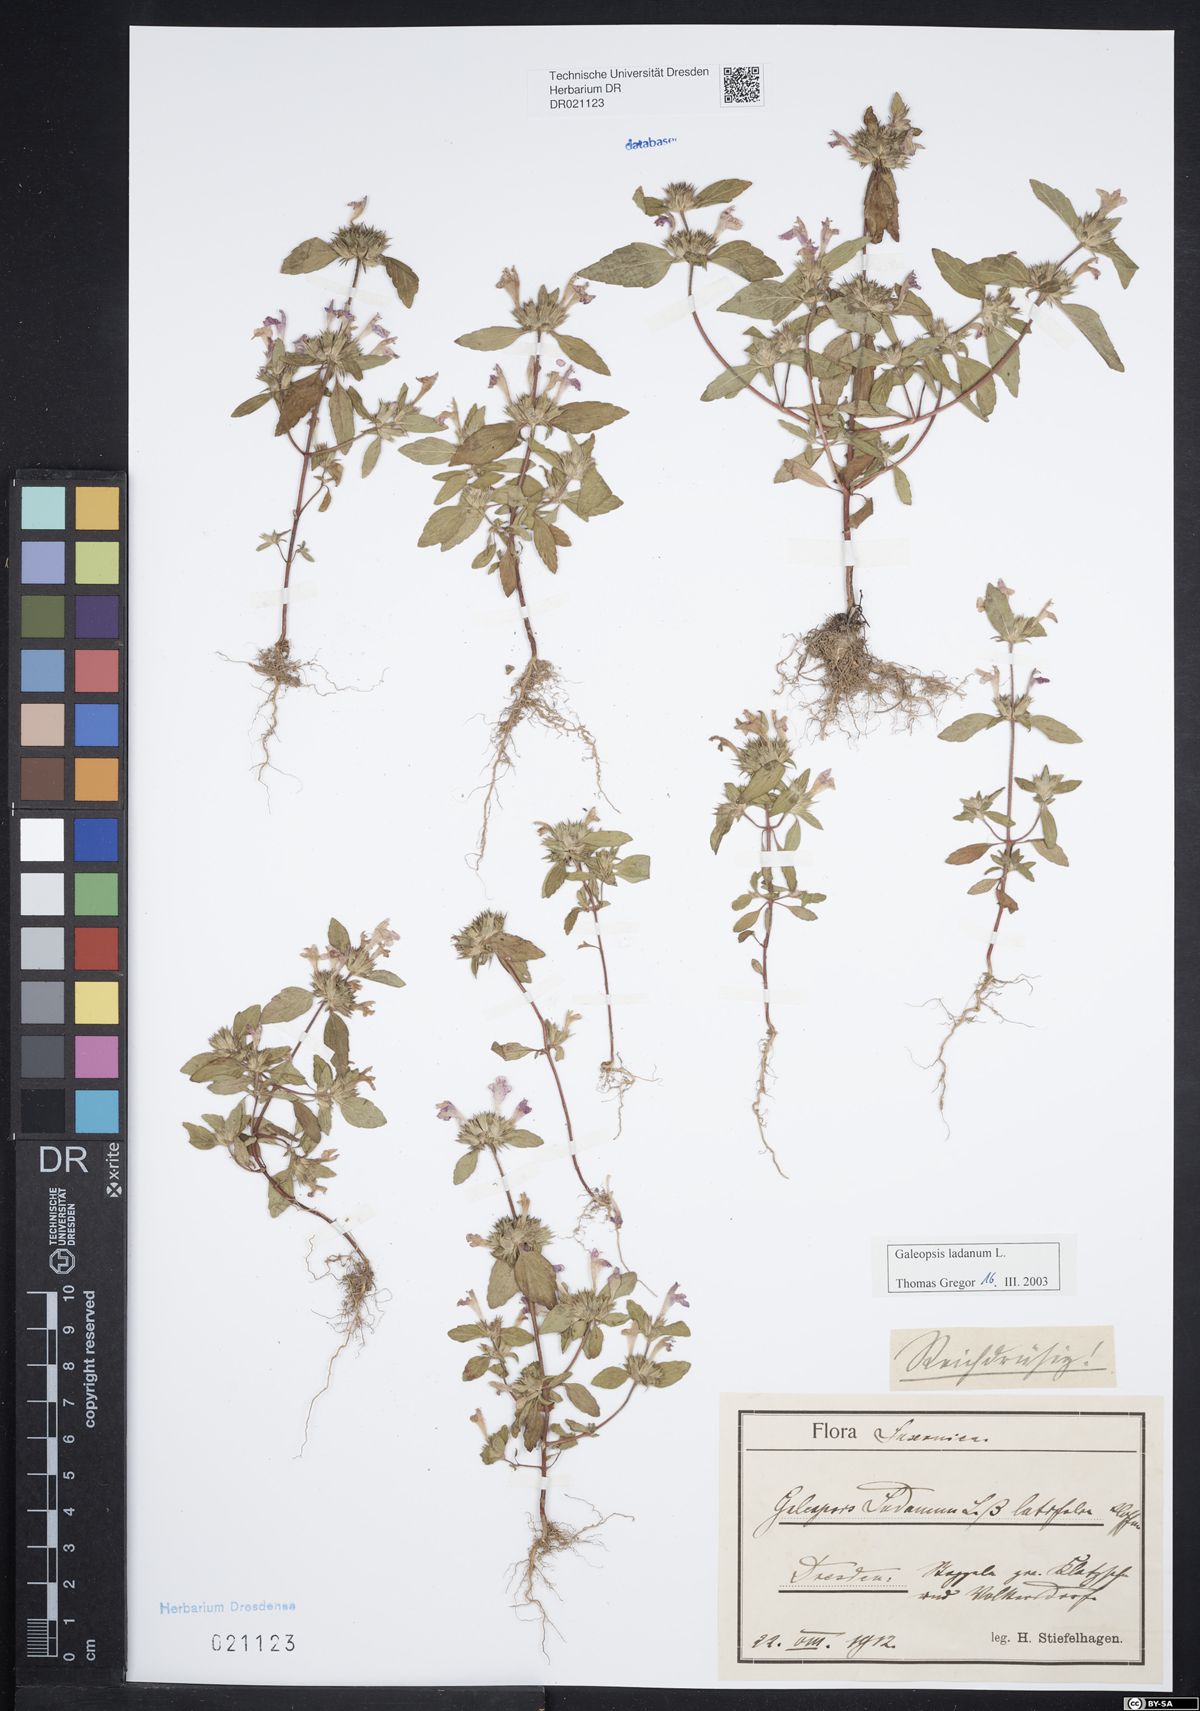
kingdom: Plantae
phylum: Tracheophyta
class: Magnoliopsida
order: Lamiales
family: Lamiaceae
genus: Galeopsis
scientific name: Galeopsis ladanum
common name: Broad-leaved hemp-nettle
